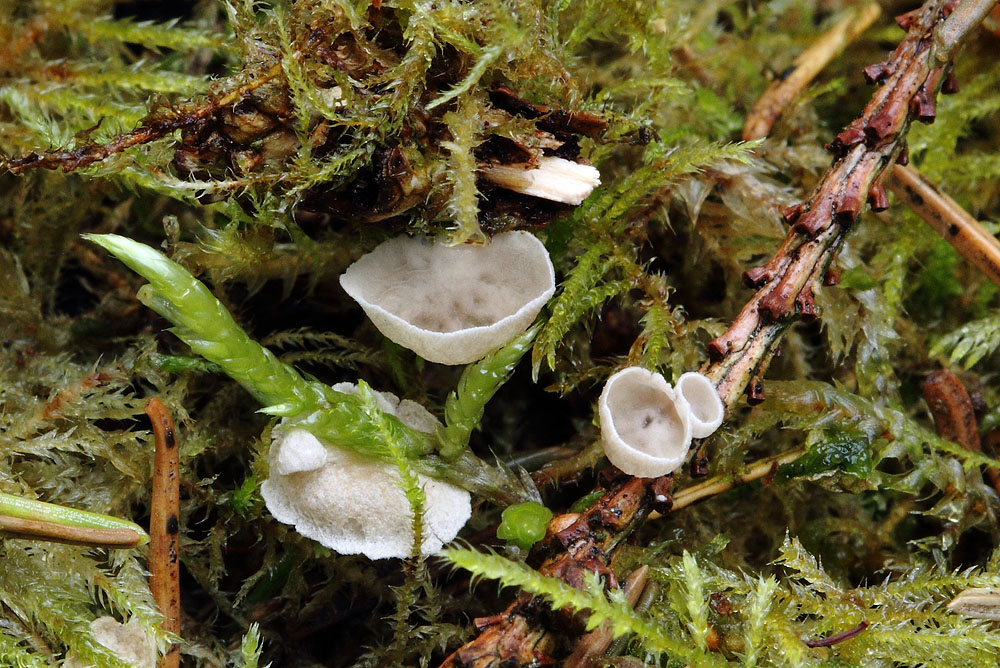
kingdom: Fungi
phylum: Basidiomycota
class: Agaricomycetes
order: Agaricales
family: Hygrophoraceae
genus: Arrhenia
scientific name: Arrhenia retiruga
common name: lille fontænehat
